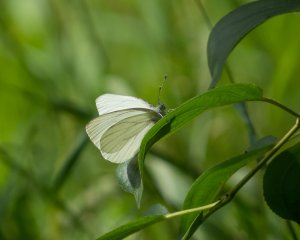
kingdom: Animalia
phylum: Arthropoda
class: Insecta
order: Lepidoptera
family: Pieridae
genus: Pieris
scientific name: Pieris oleracea
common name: Mustard White
